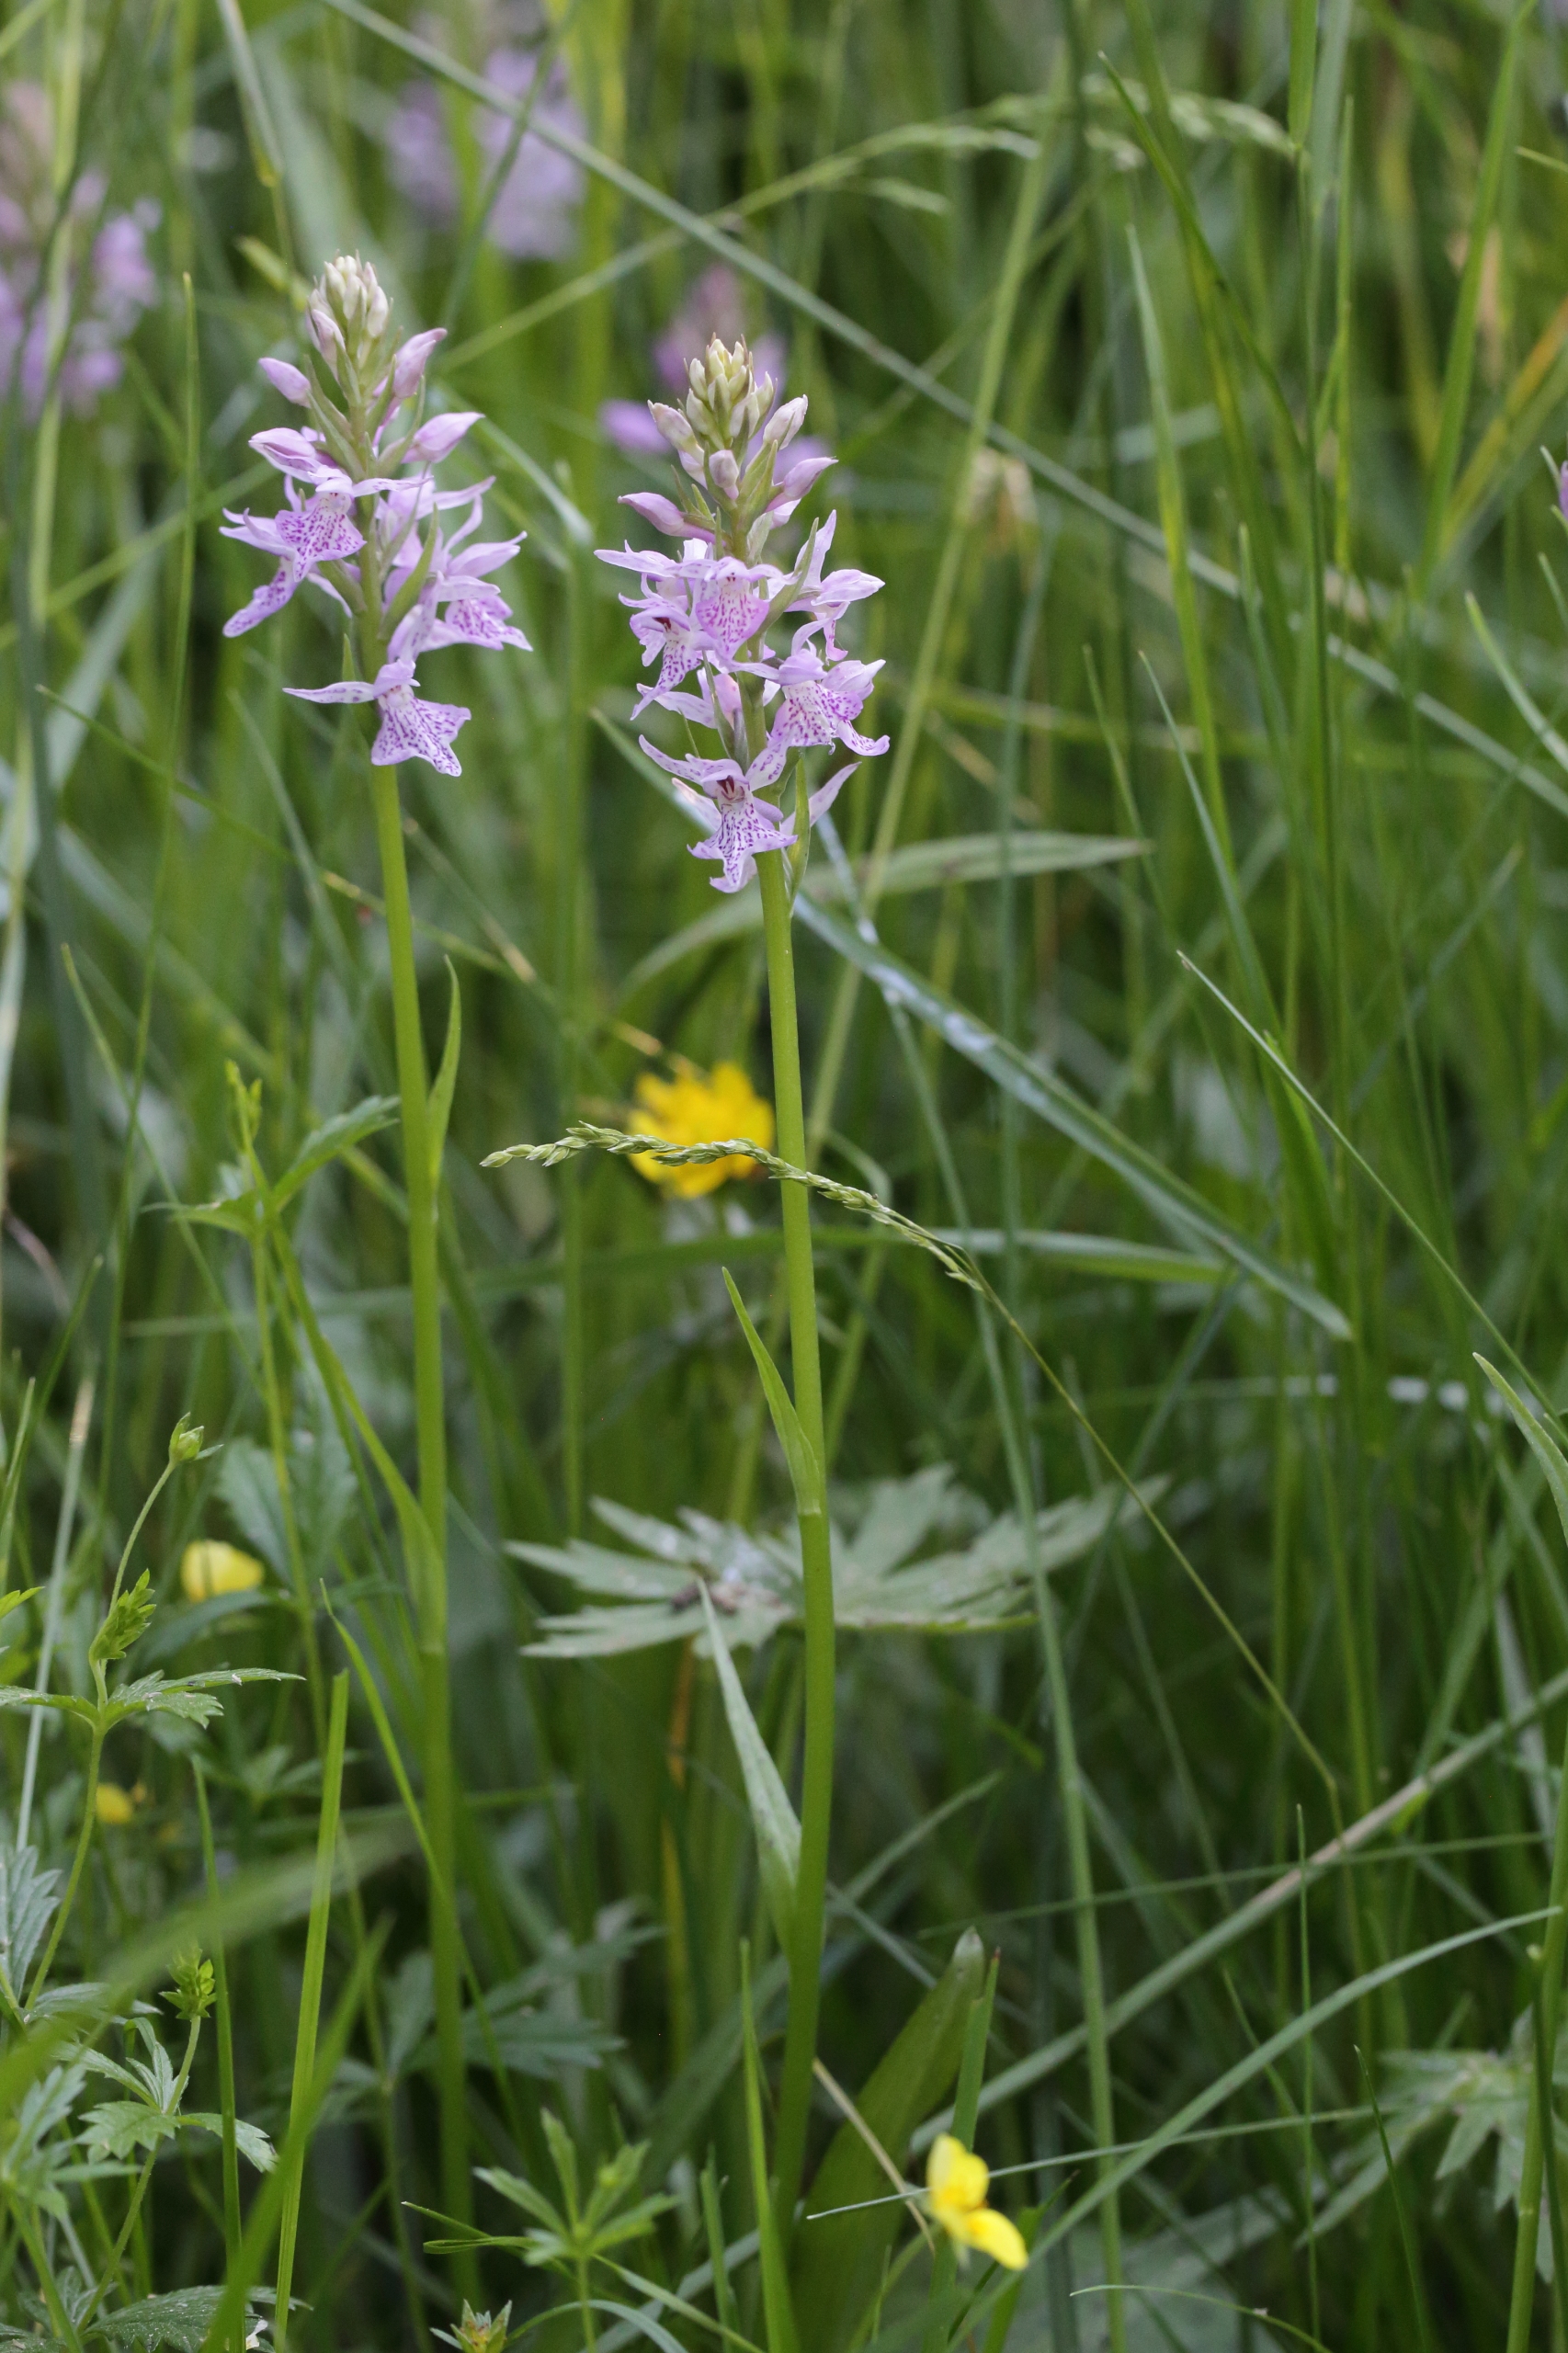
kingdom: Plantae
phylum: Tracheophyta
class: Liliopsida
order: Asparagales
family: Orchidaceae
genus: Dactylorhiza
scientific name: Dactylorhiza maculata
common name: Plettet gøgeurt
